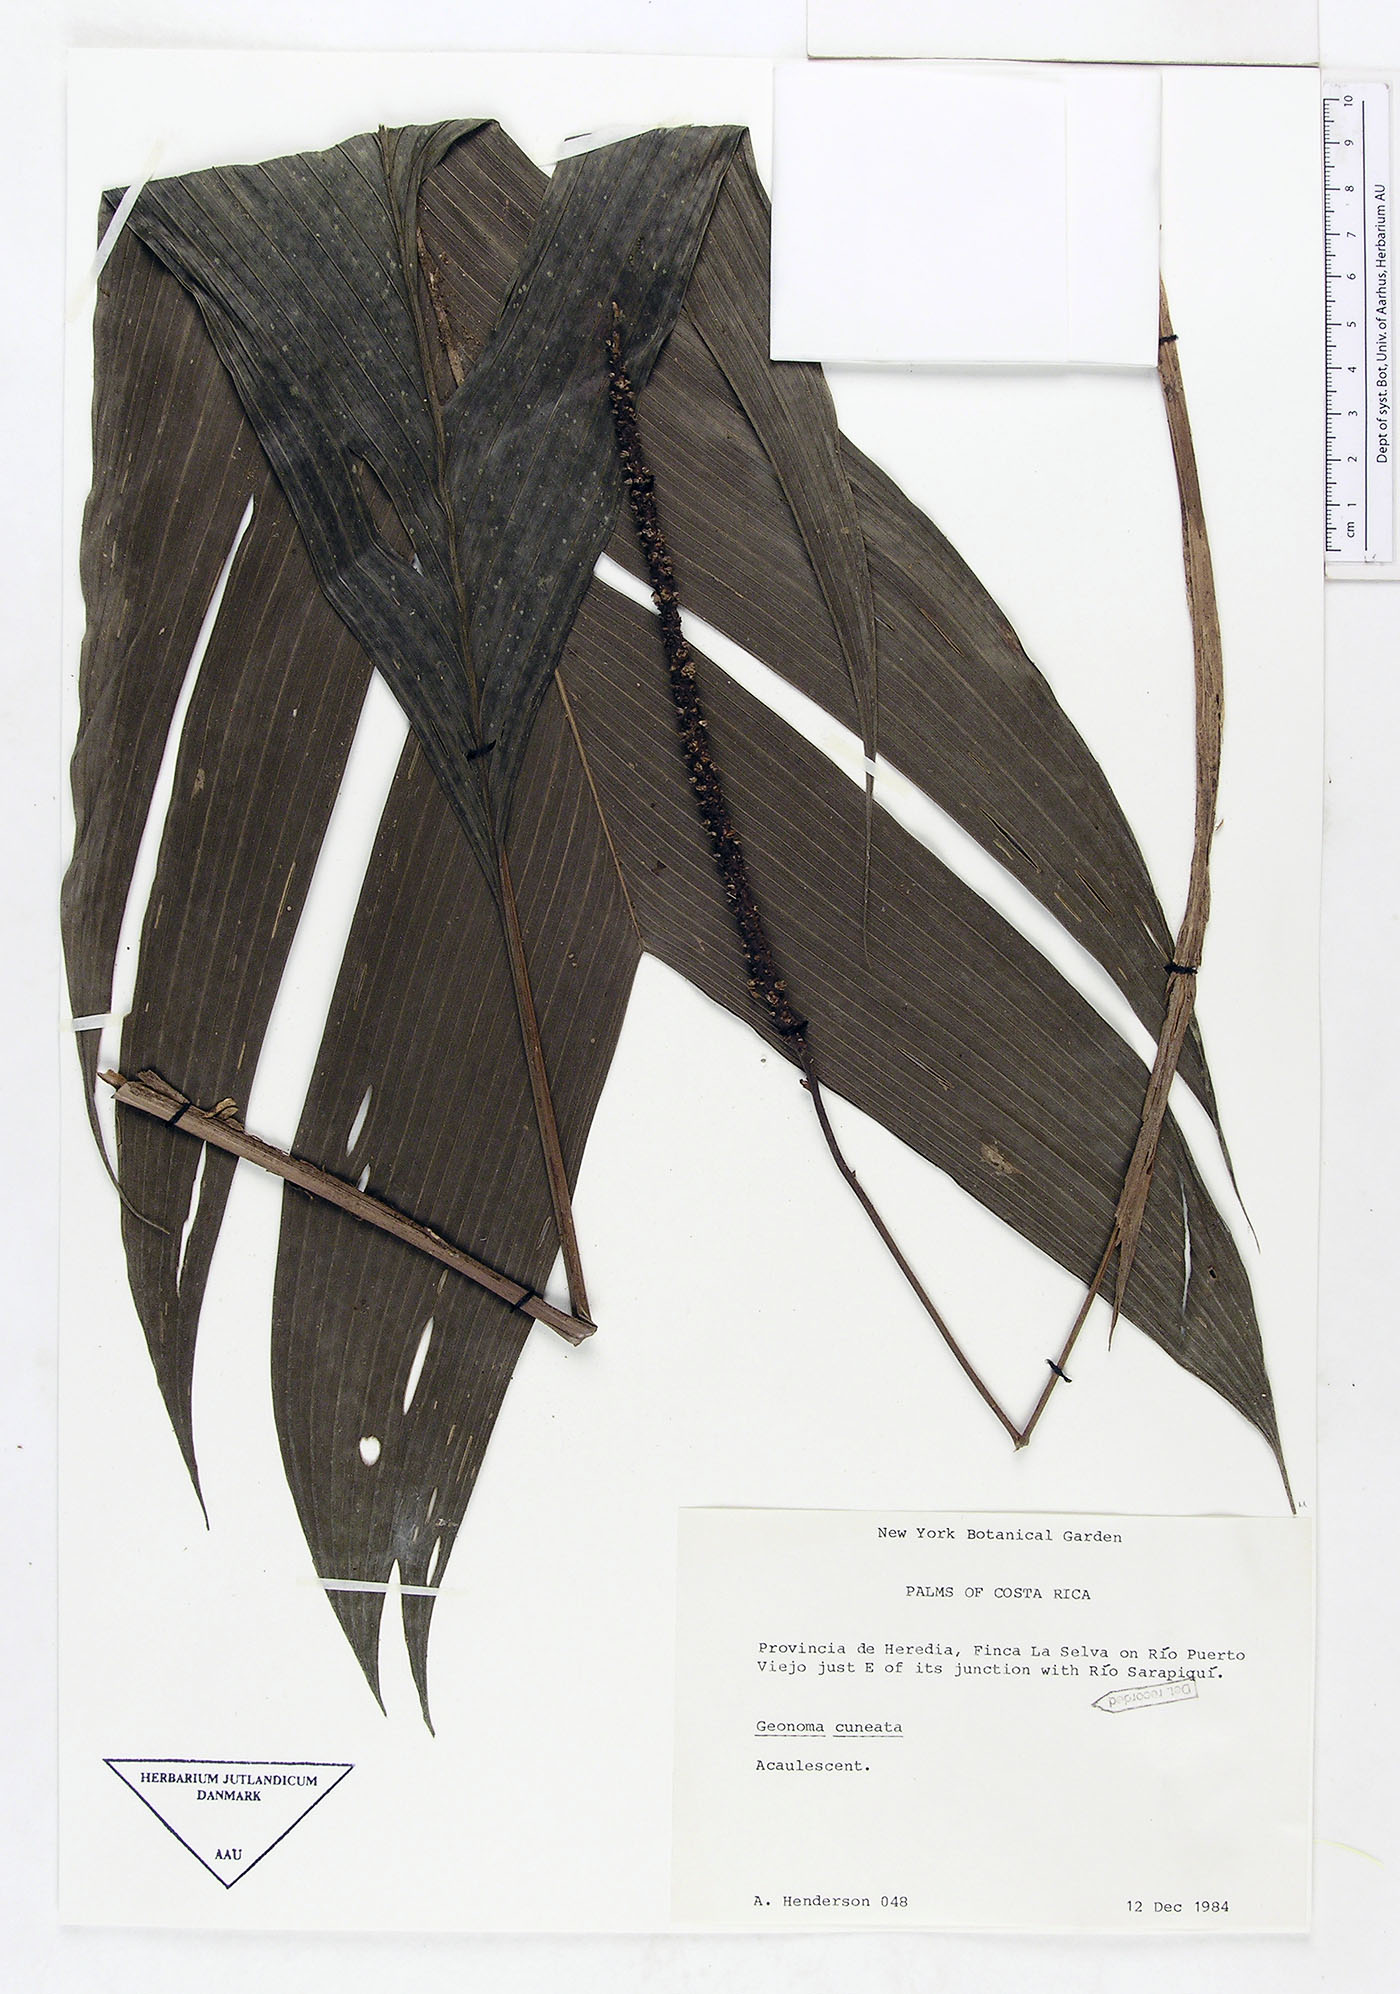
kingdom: Plantae
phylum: Tracheophyta
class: Liliopsida
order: Arecales
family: Arecaceae
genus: Geonoma
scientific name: Geonoma cuneata
